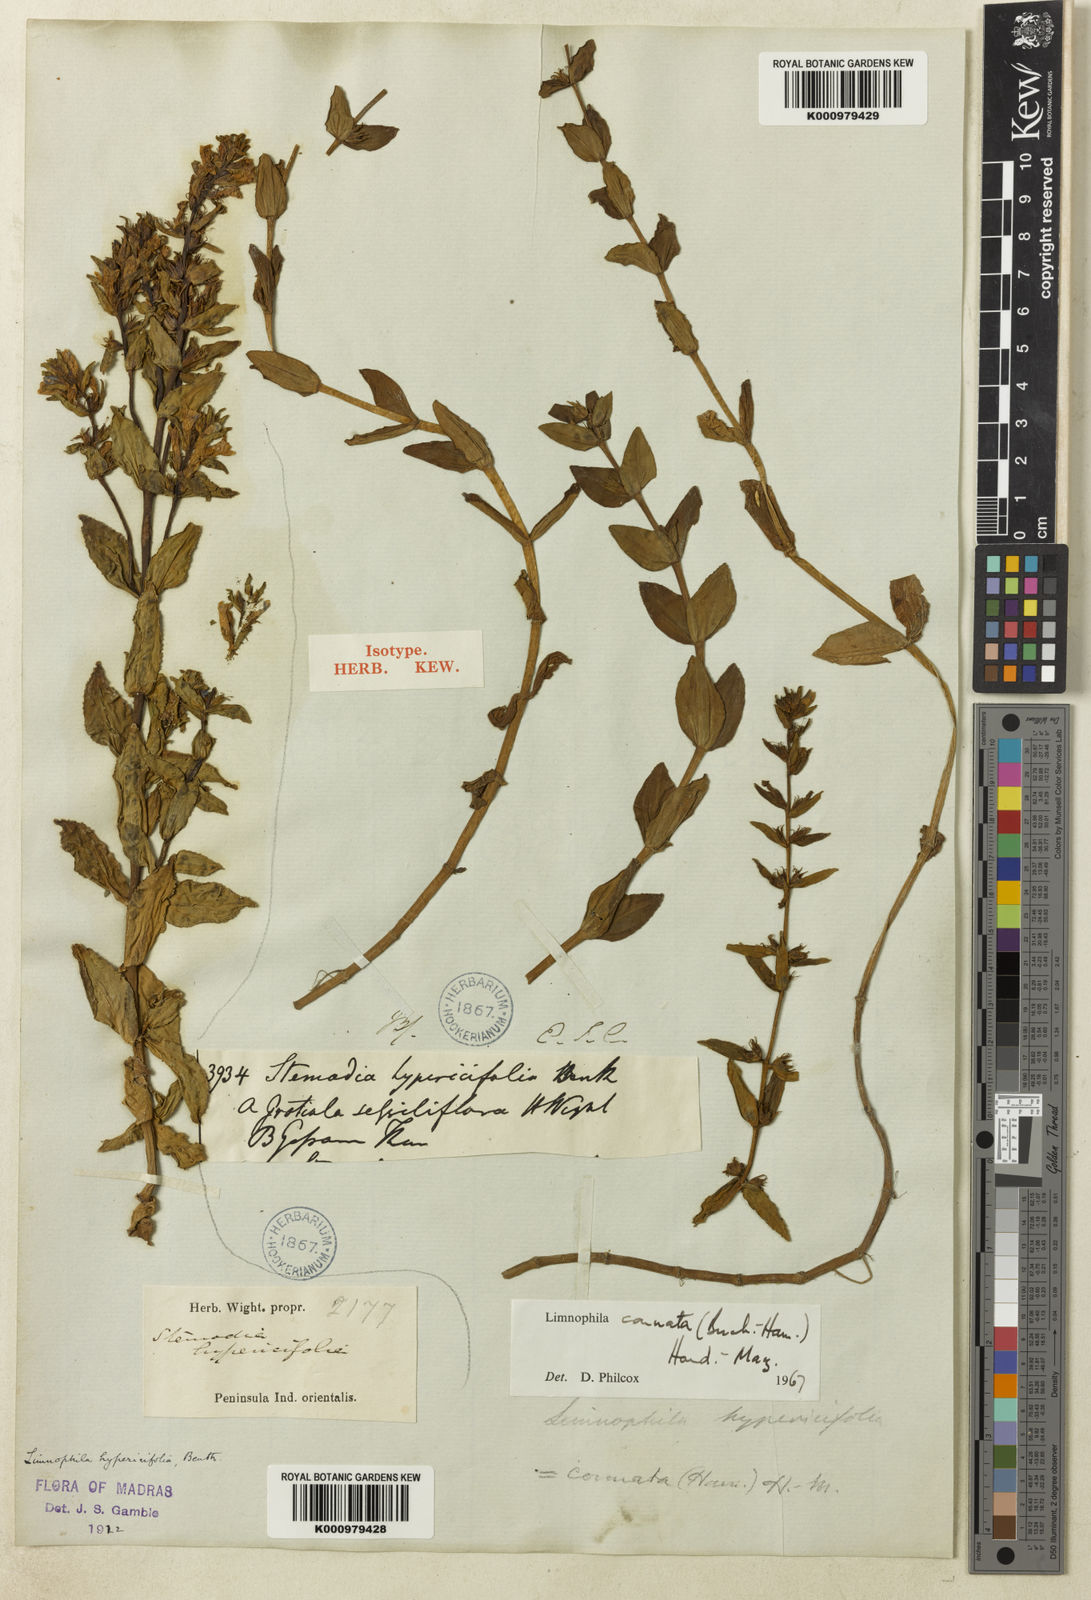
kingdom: Plantae
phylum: Tracheophyta
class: Magnoliopsida
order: Lamiales
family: Plantaginaceae
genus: Limnophila
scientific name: Limnophila connata
